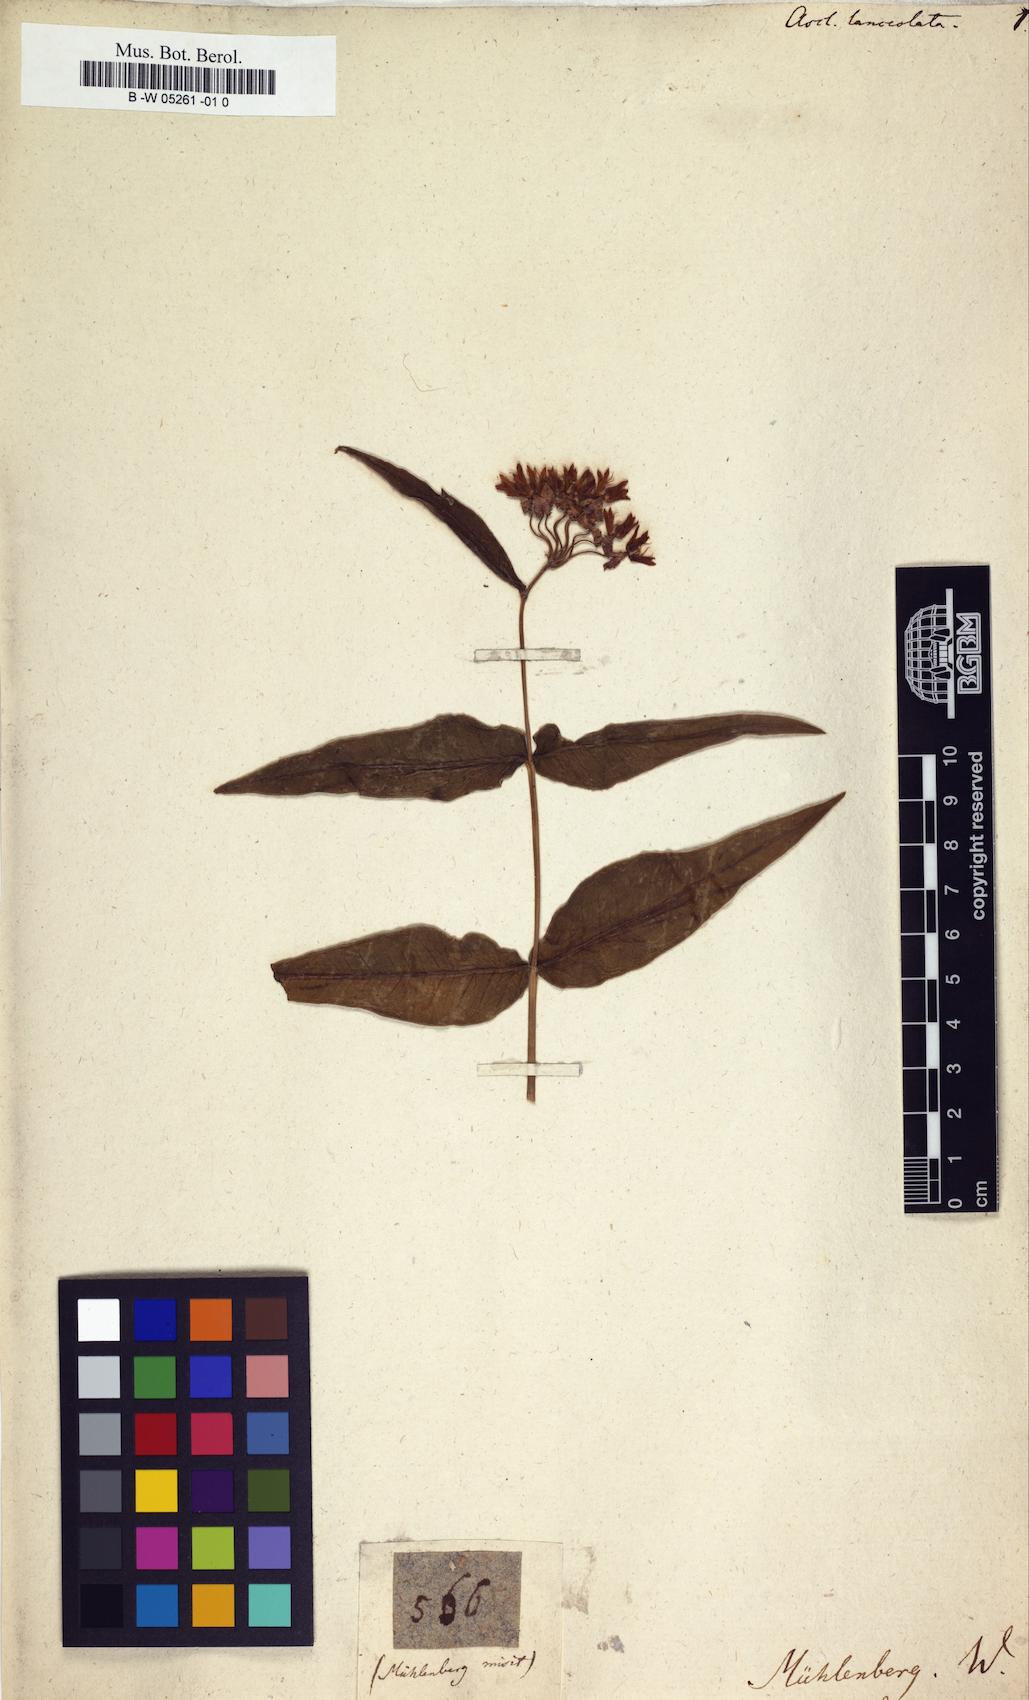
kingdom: Plantae
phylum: Tracheophyta
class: Magnoliopsida
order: Gentianales
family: Apocynaceae
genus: Asclepias
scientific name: Asclepias lanceolata
